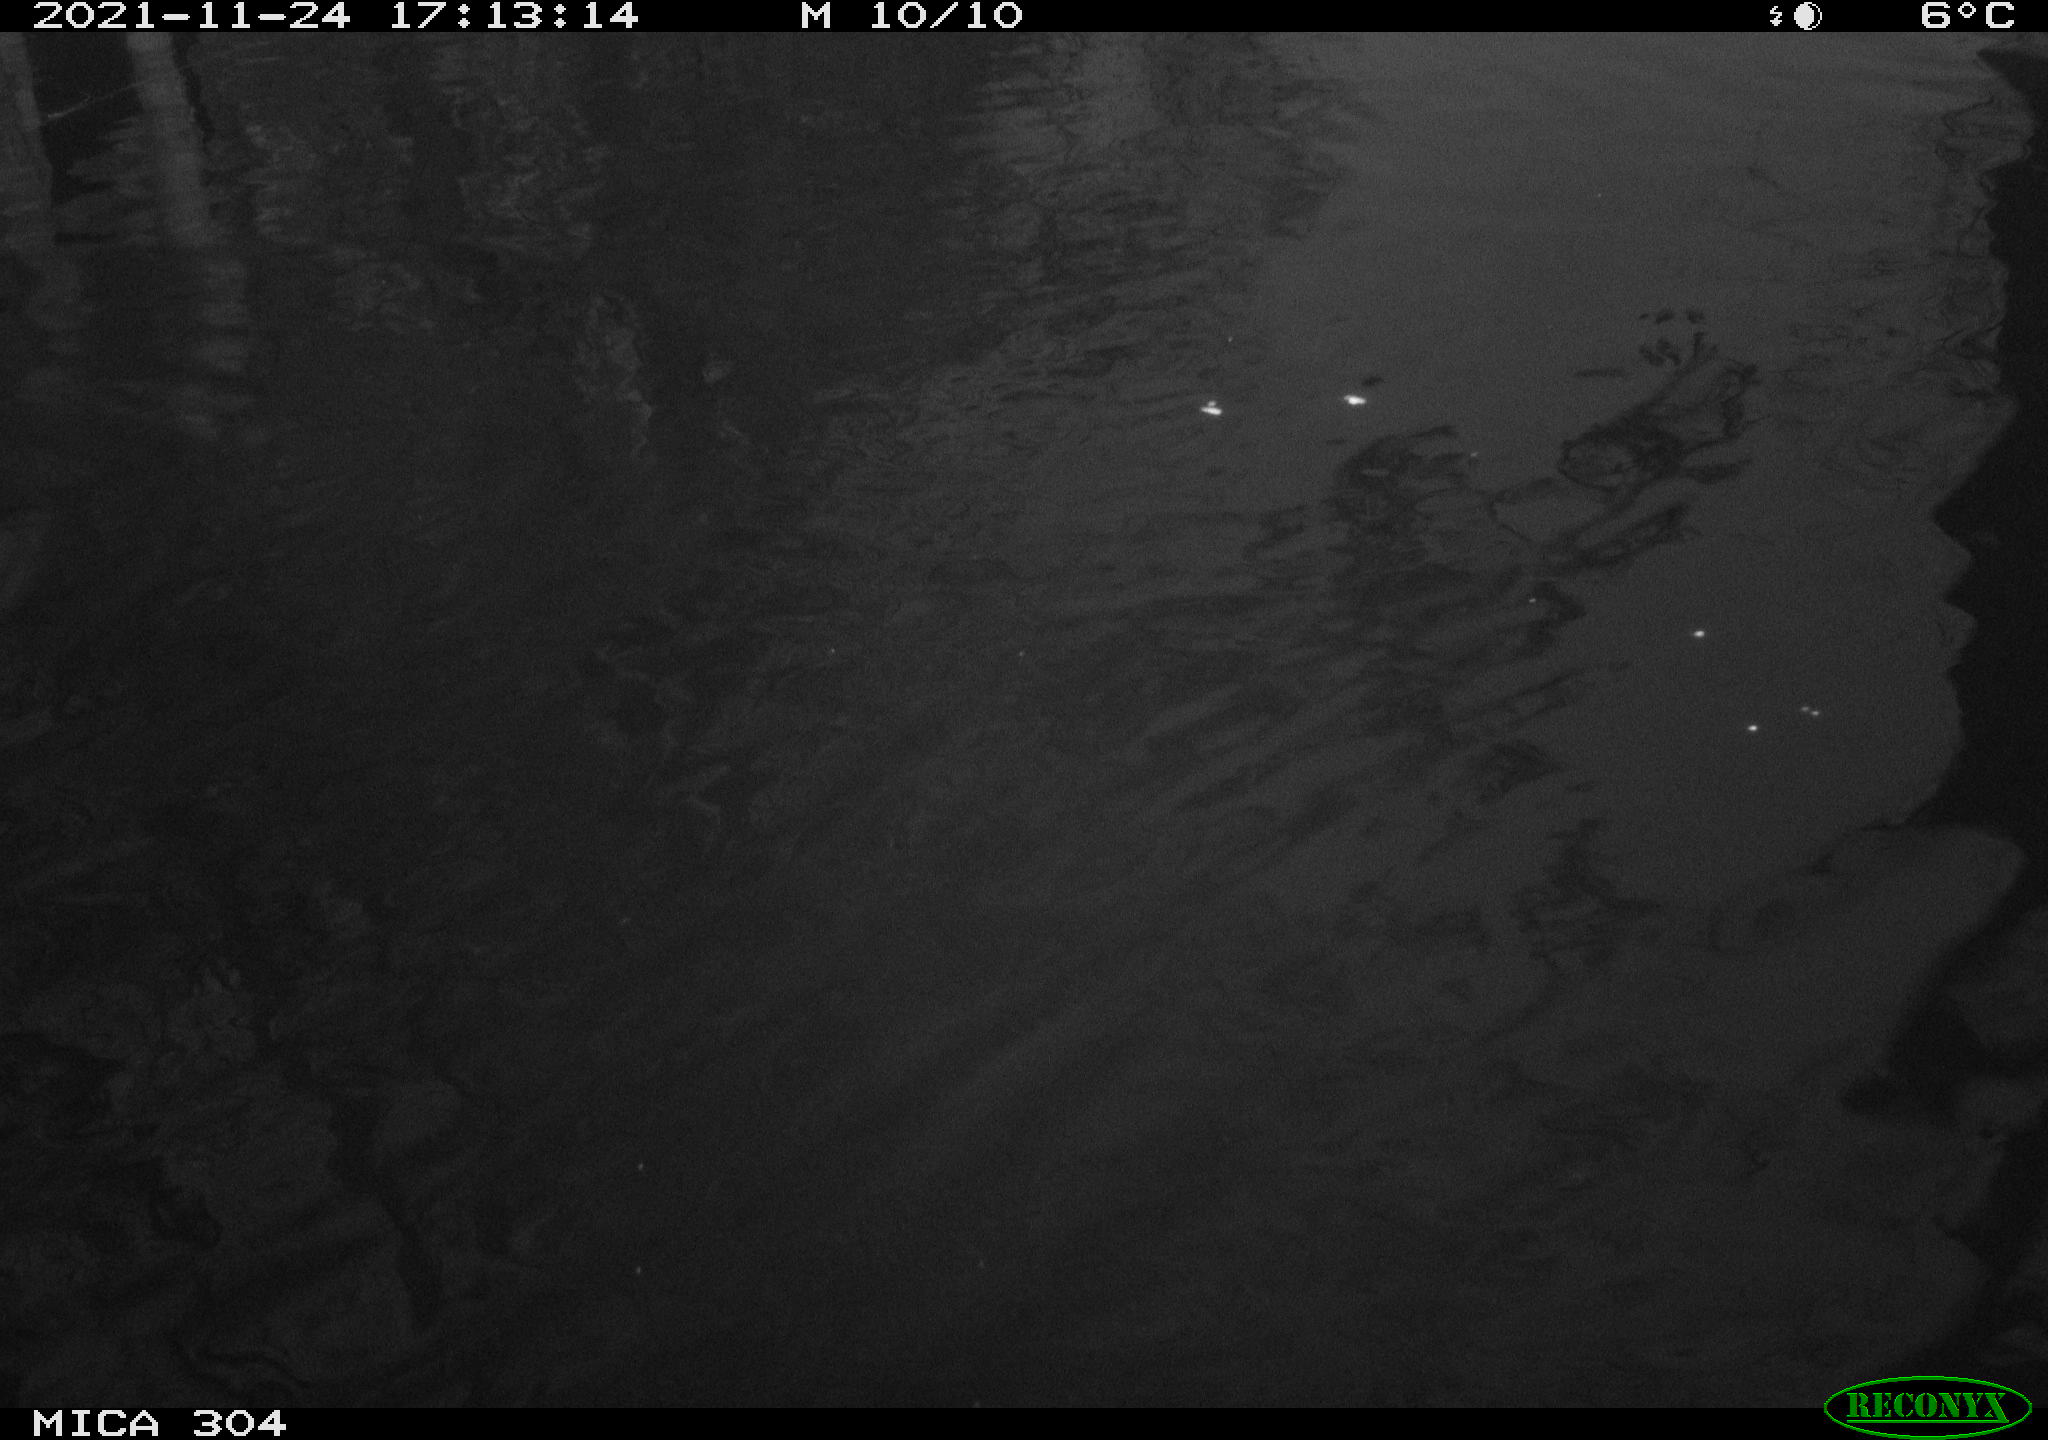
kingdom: Animalia
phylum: Chordata
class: Aves
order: Gruiformes
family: Rallidae
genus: Fulica
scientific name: Fulica atra
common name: Eurasian coot
